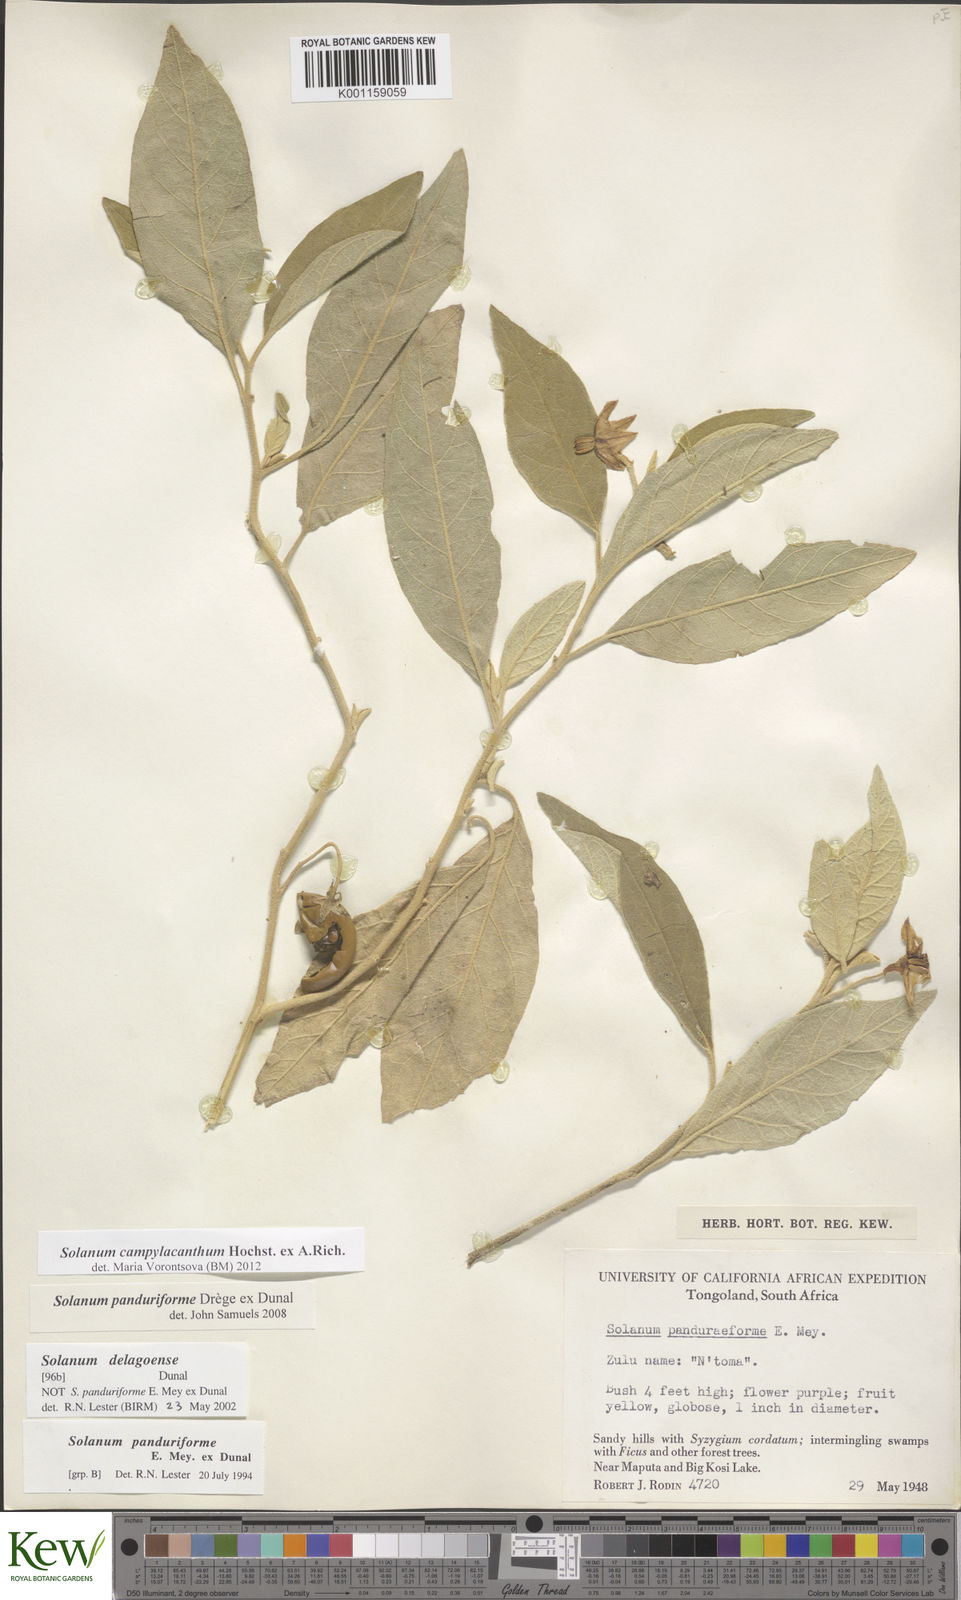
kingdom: Plantae
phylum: Tracheophyta
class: Magnoliopsida
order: Solanales
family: Solanaceae
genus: Solanum
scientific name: Solanum campylacanthum
